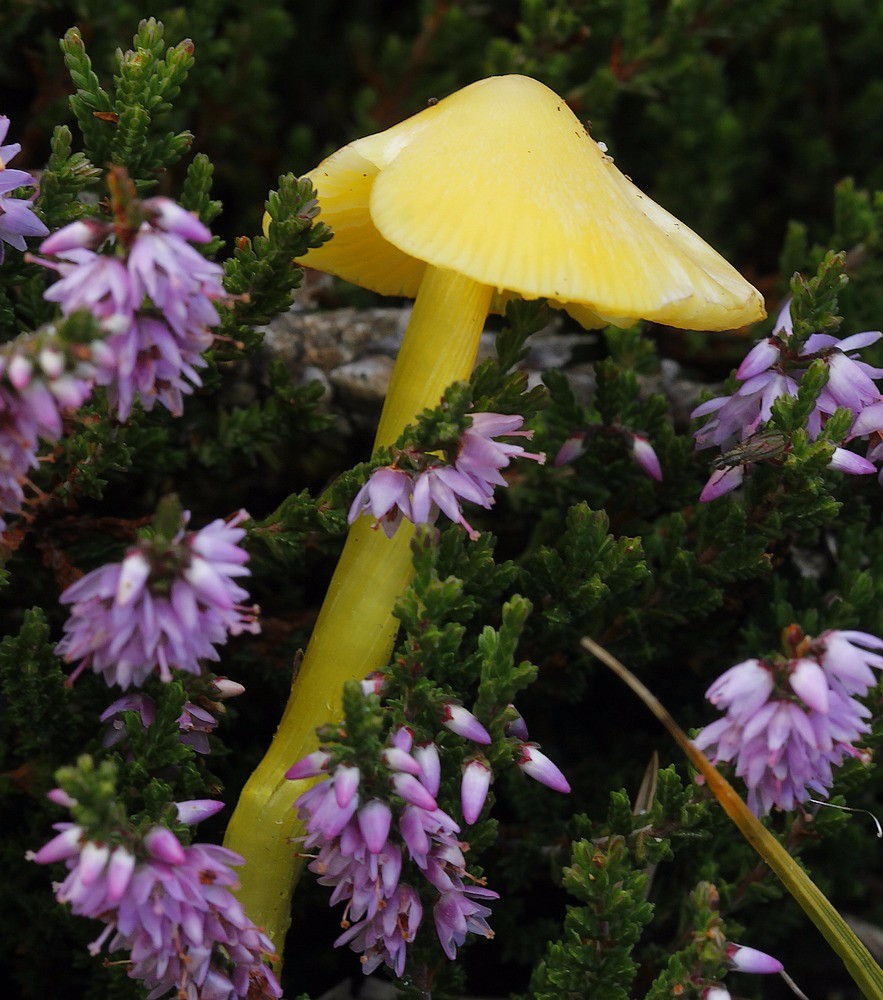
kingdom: Fungi
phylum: Basidiomycota
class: Agaricomycetes
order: Agaricales
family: Hygrophoraceae
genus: Hygrocybe
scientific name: Hygrocybe acutoconica
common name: spidspuklet vokshat
